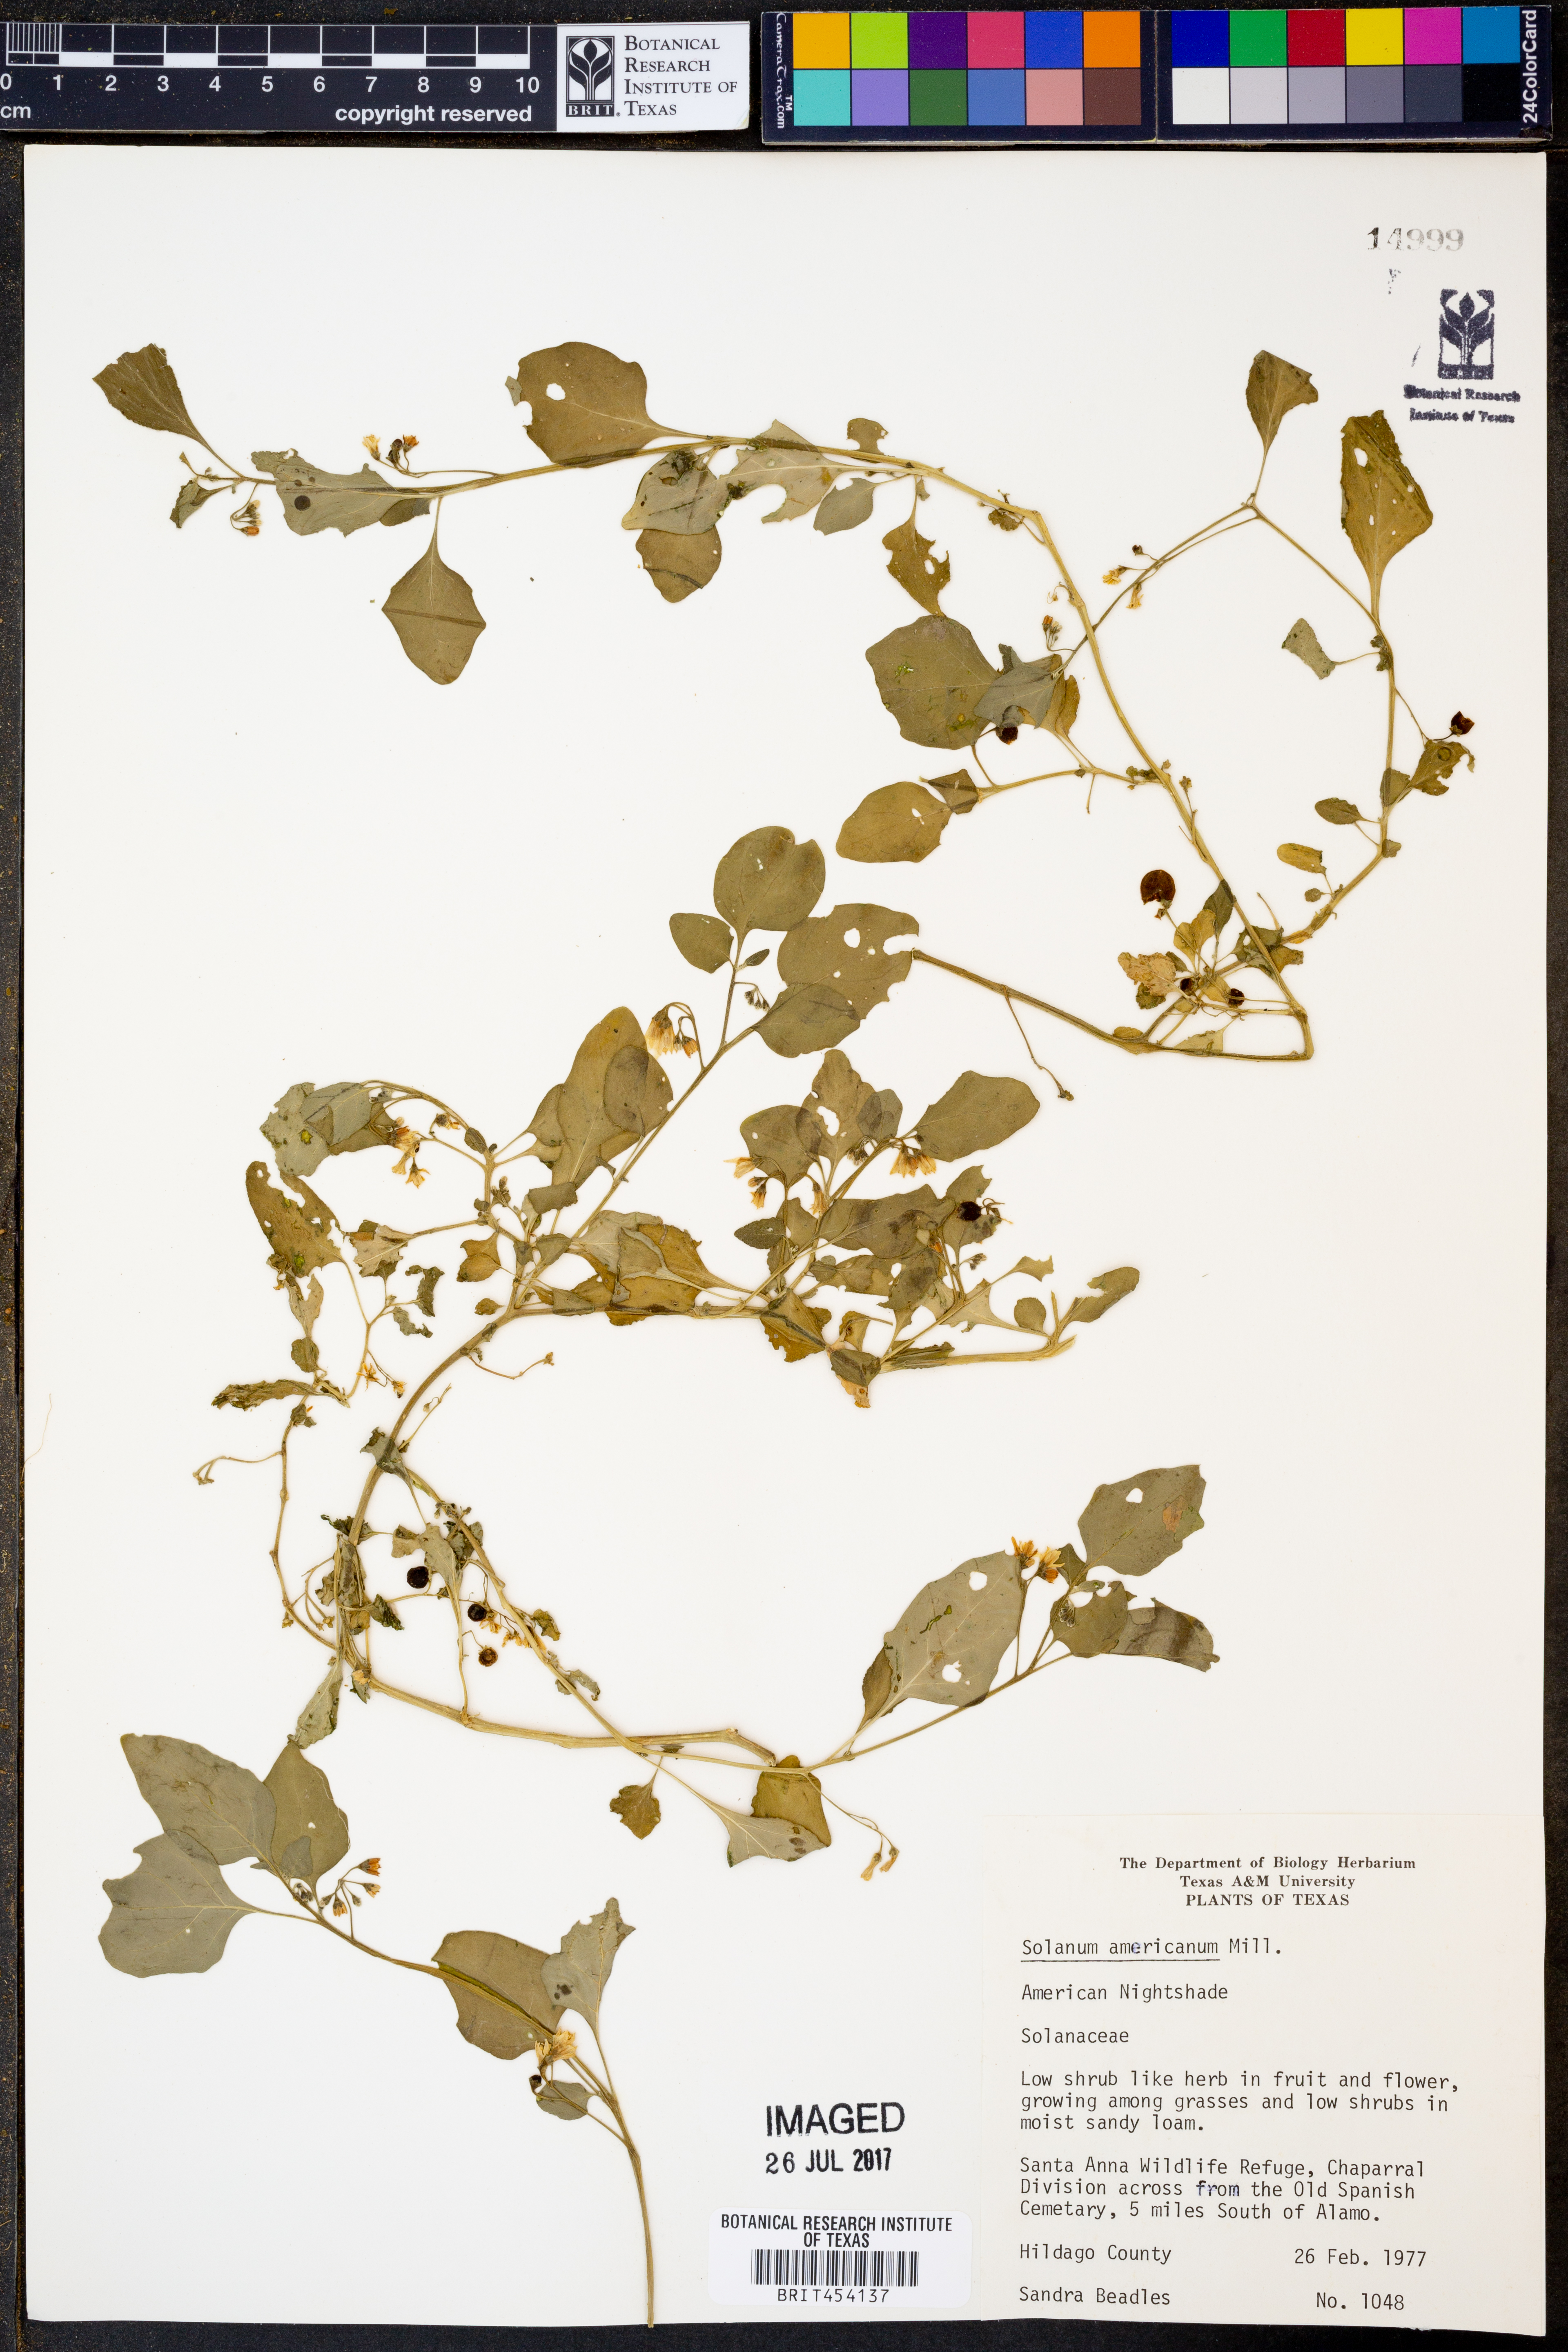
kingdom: Plantae
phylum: Tracheophyta
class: Magnoliopsida
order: Solanales
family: Solanaceae
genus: Solanum
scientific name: Solanum americanum
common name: American black nightshade
